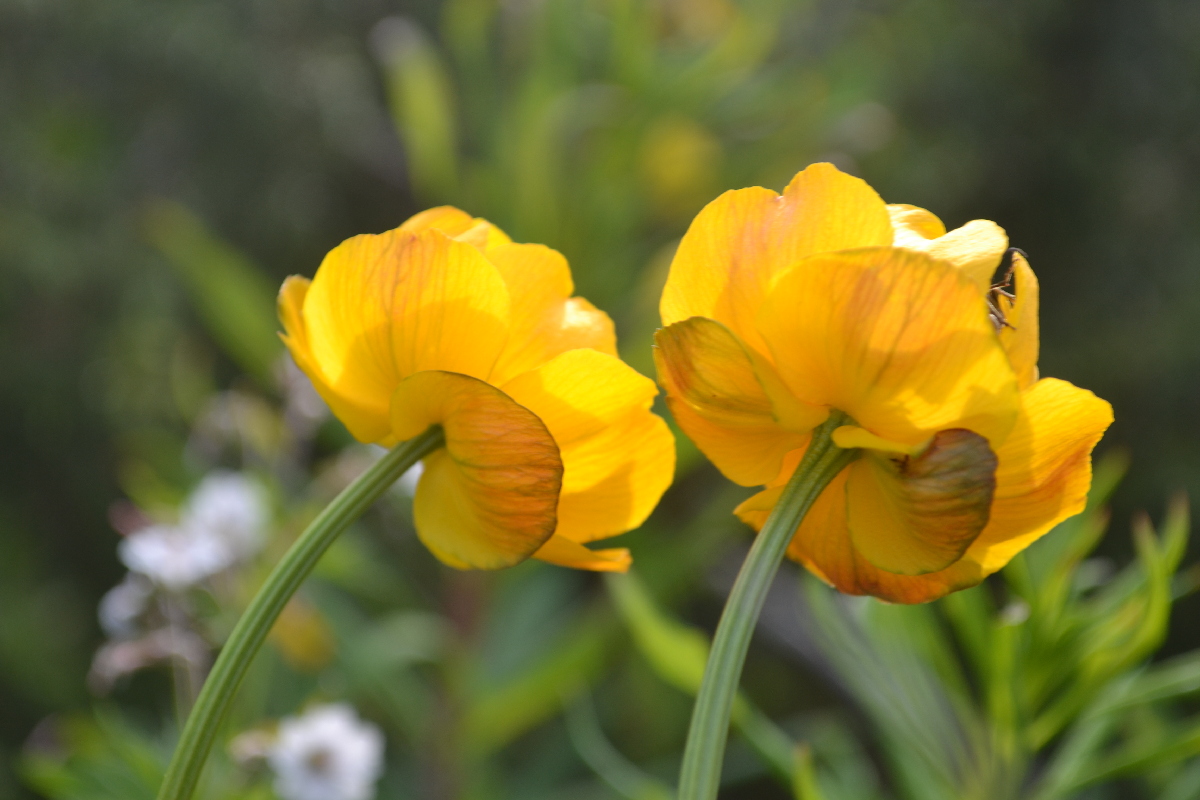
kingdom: Plantae
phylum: Tracheophyta
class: Magnoliopsida
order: Ranunculales
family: Ranunculaceae
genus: Trollius
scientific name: Trollius apertus
